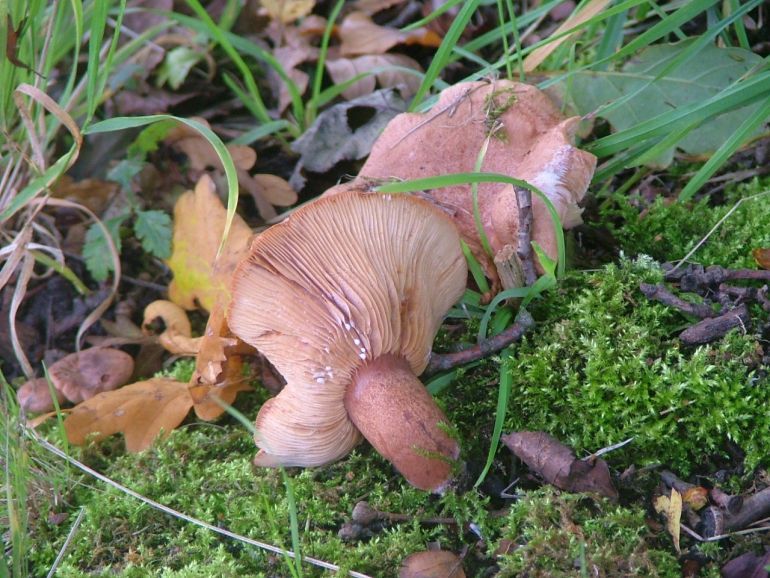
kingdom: Fungi
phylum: Basidiomycota
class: Agaricomycetes
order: Russulales
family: Russulaceae
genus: Lactarius
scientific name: Lactarius quietus
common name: ege-mælkehat
